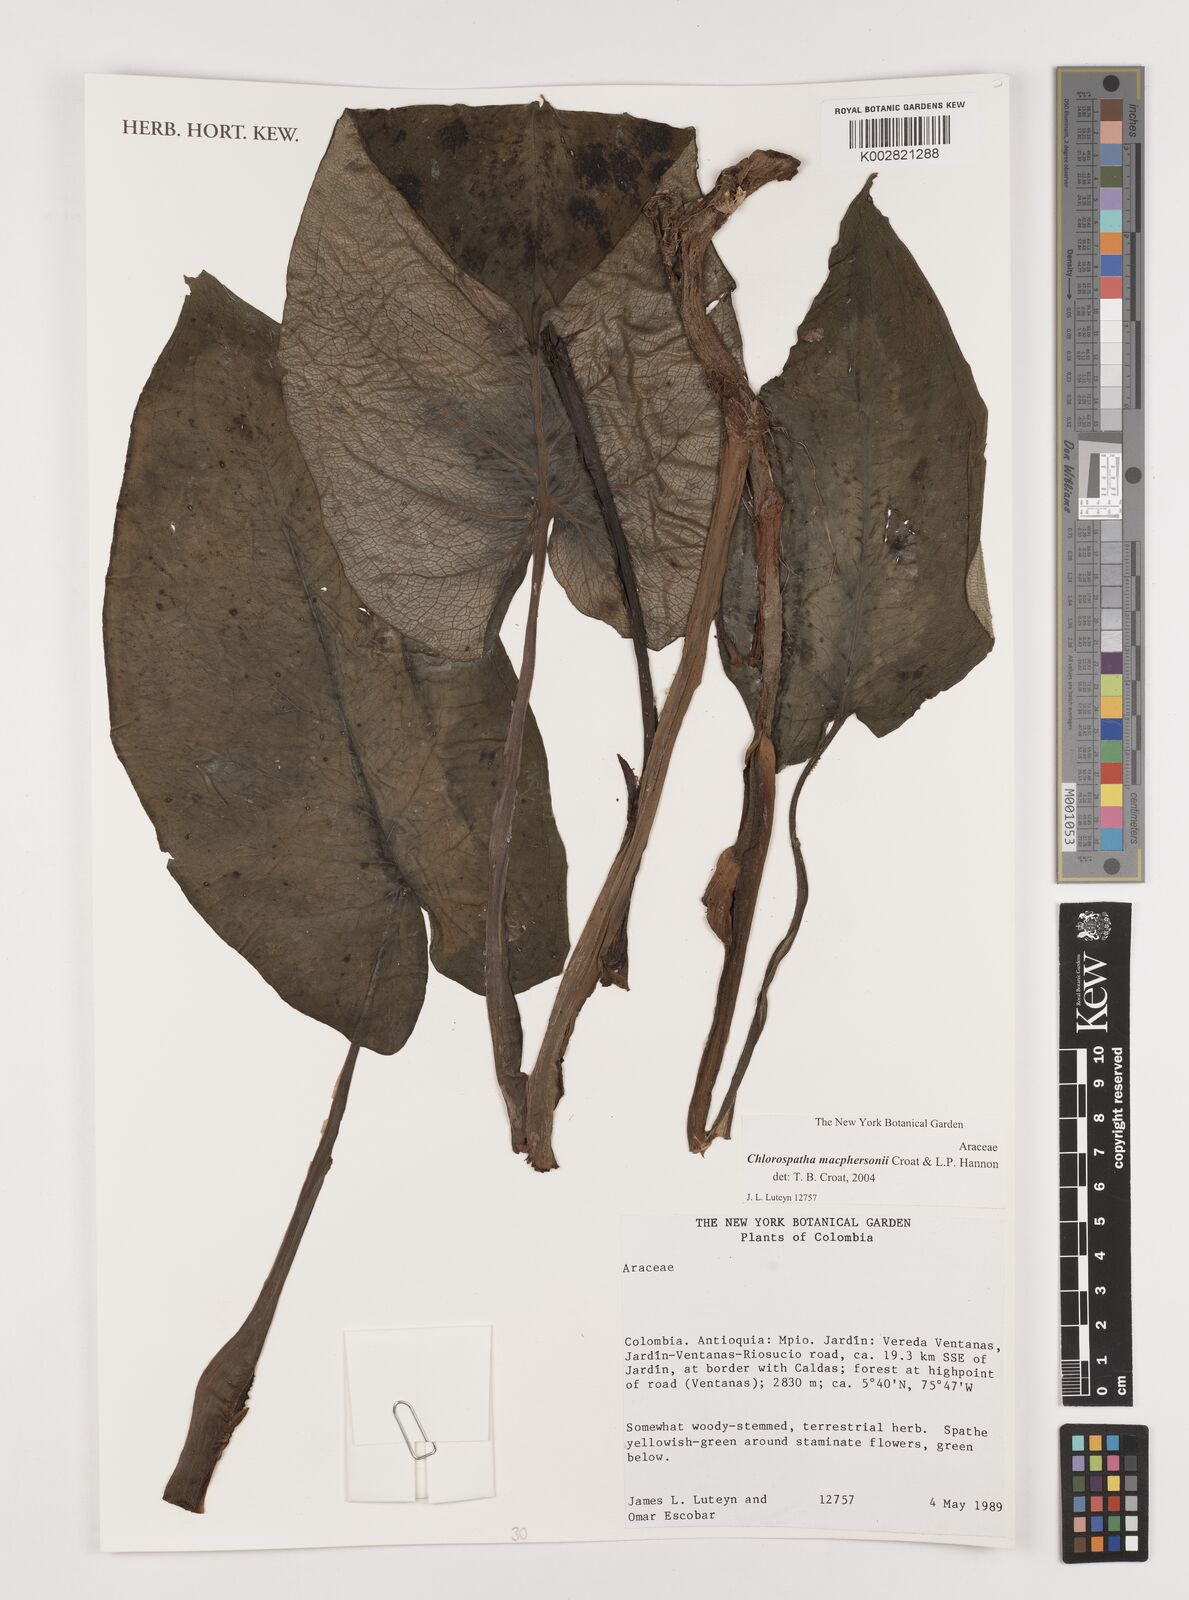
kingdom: Plantae
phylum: Tracheophyta
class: Liliopsida
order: Alismatales
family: Araceae
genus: Chlorospatha
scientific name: Chlorospatha macphersonii
